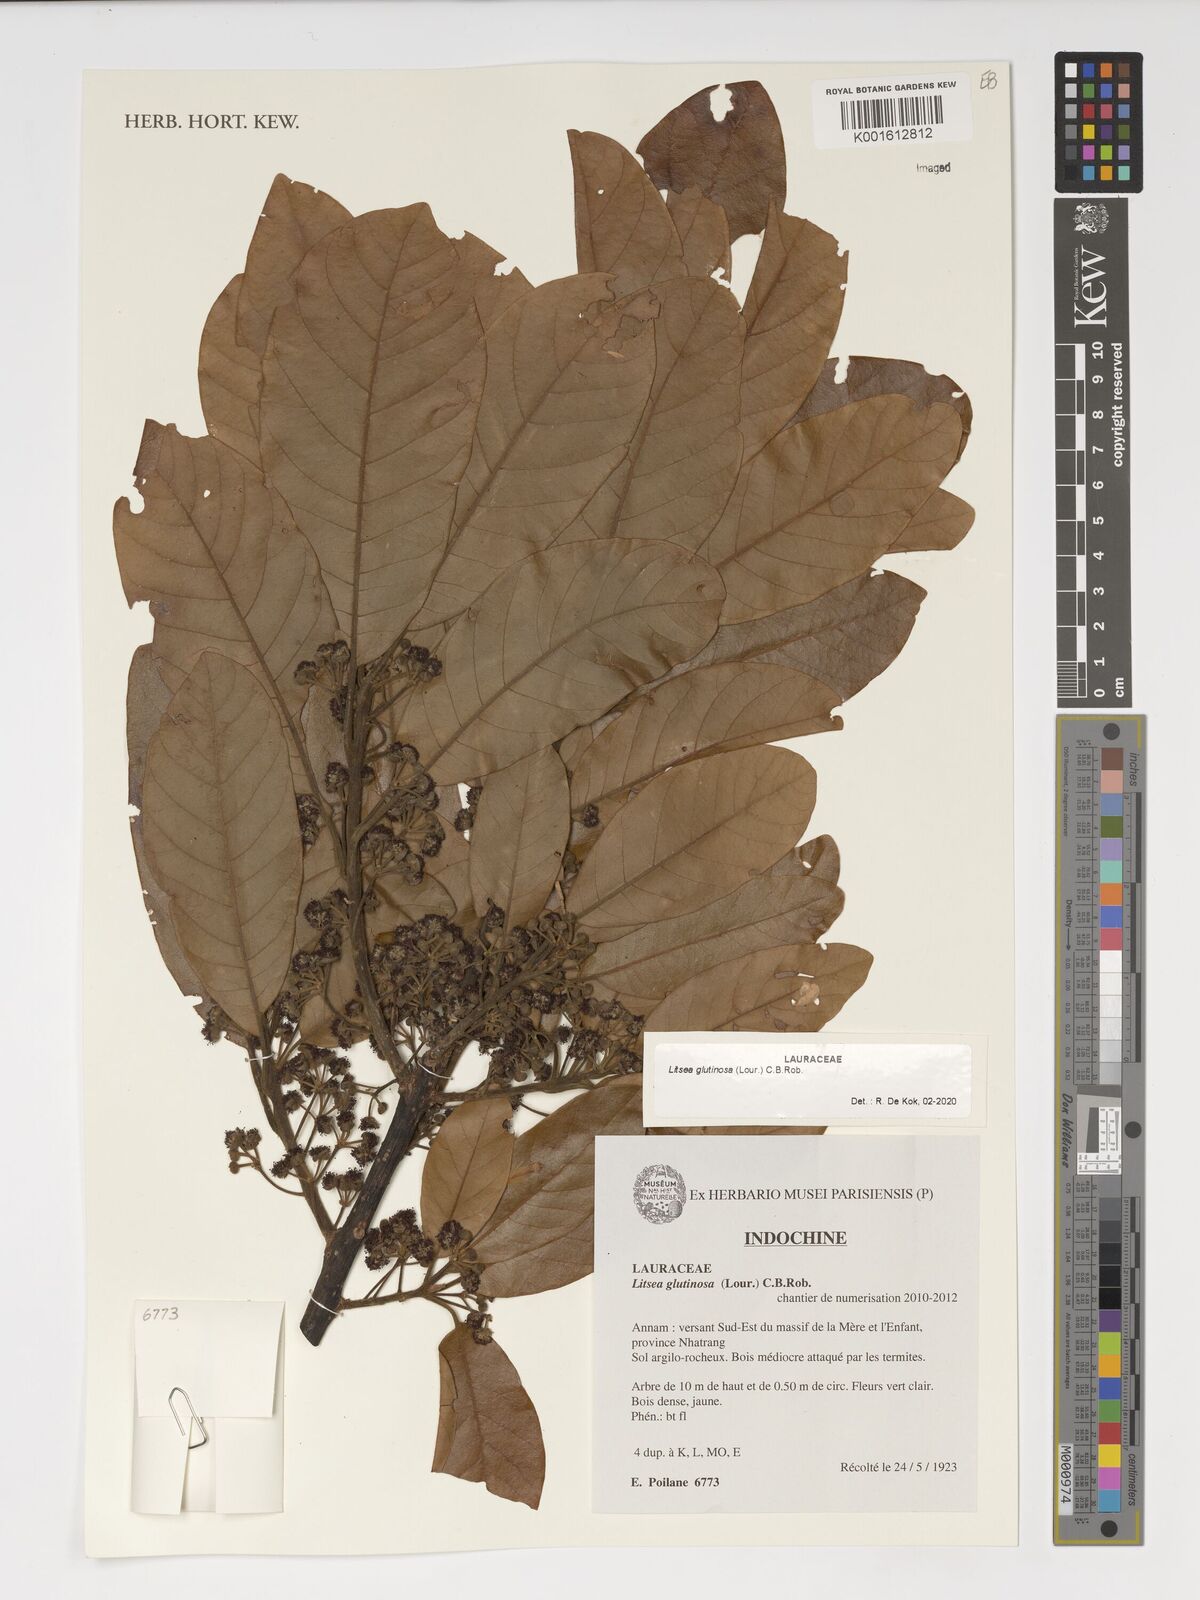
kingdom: Plantae
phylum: Tracheophyta
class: Magnoliopsida
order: Laurales
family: Lauraceae
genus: Litsea
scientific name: Litsea glutinosa
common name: Indian-laurel
